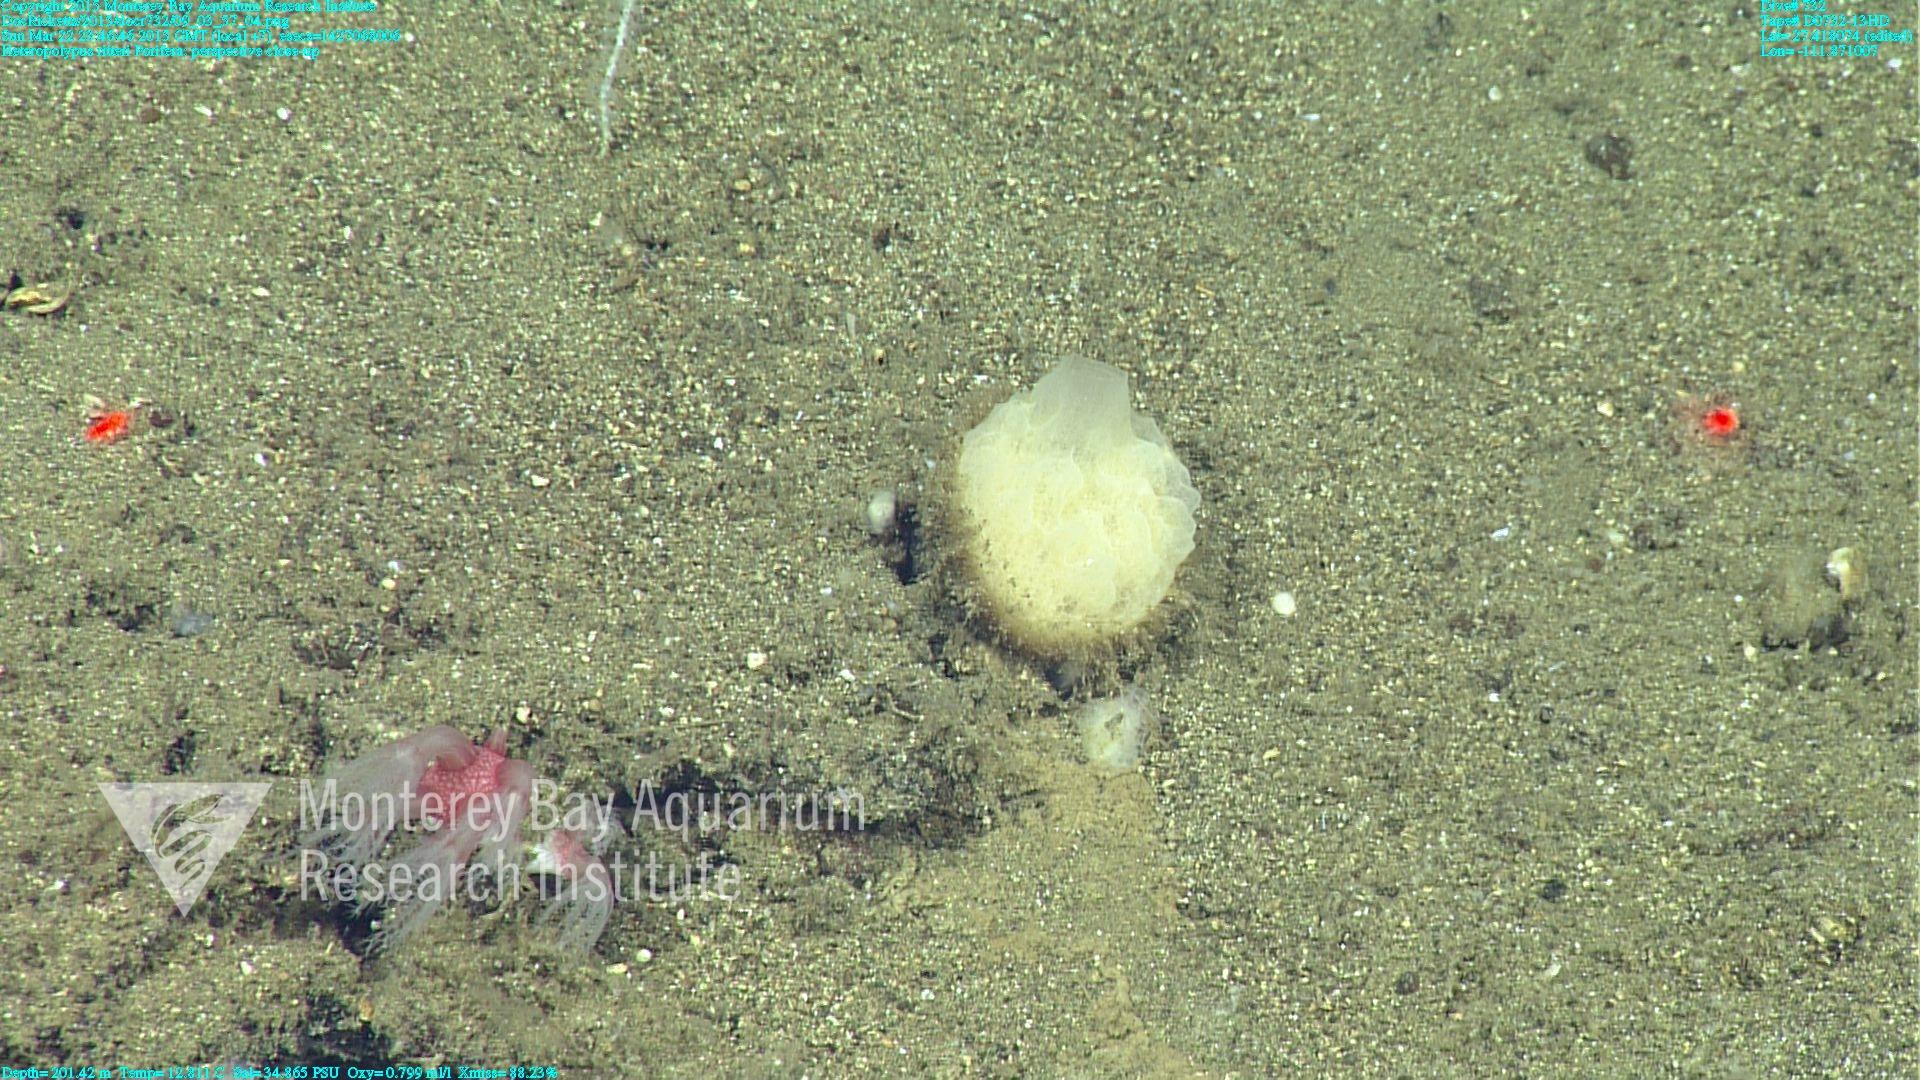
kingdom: Animalia
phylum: Cnidaria
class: Anthozoa
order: Scleralcyonacea
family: Coralliidae
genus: Heteropolypus
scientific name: Heteropolypus ritteri
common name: Ritter's soft coral
